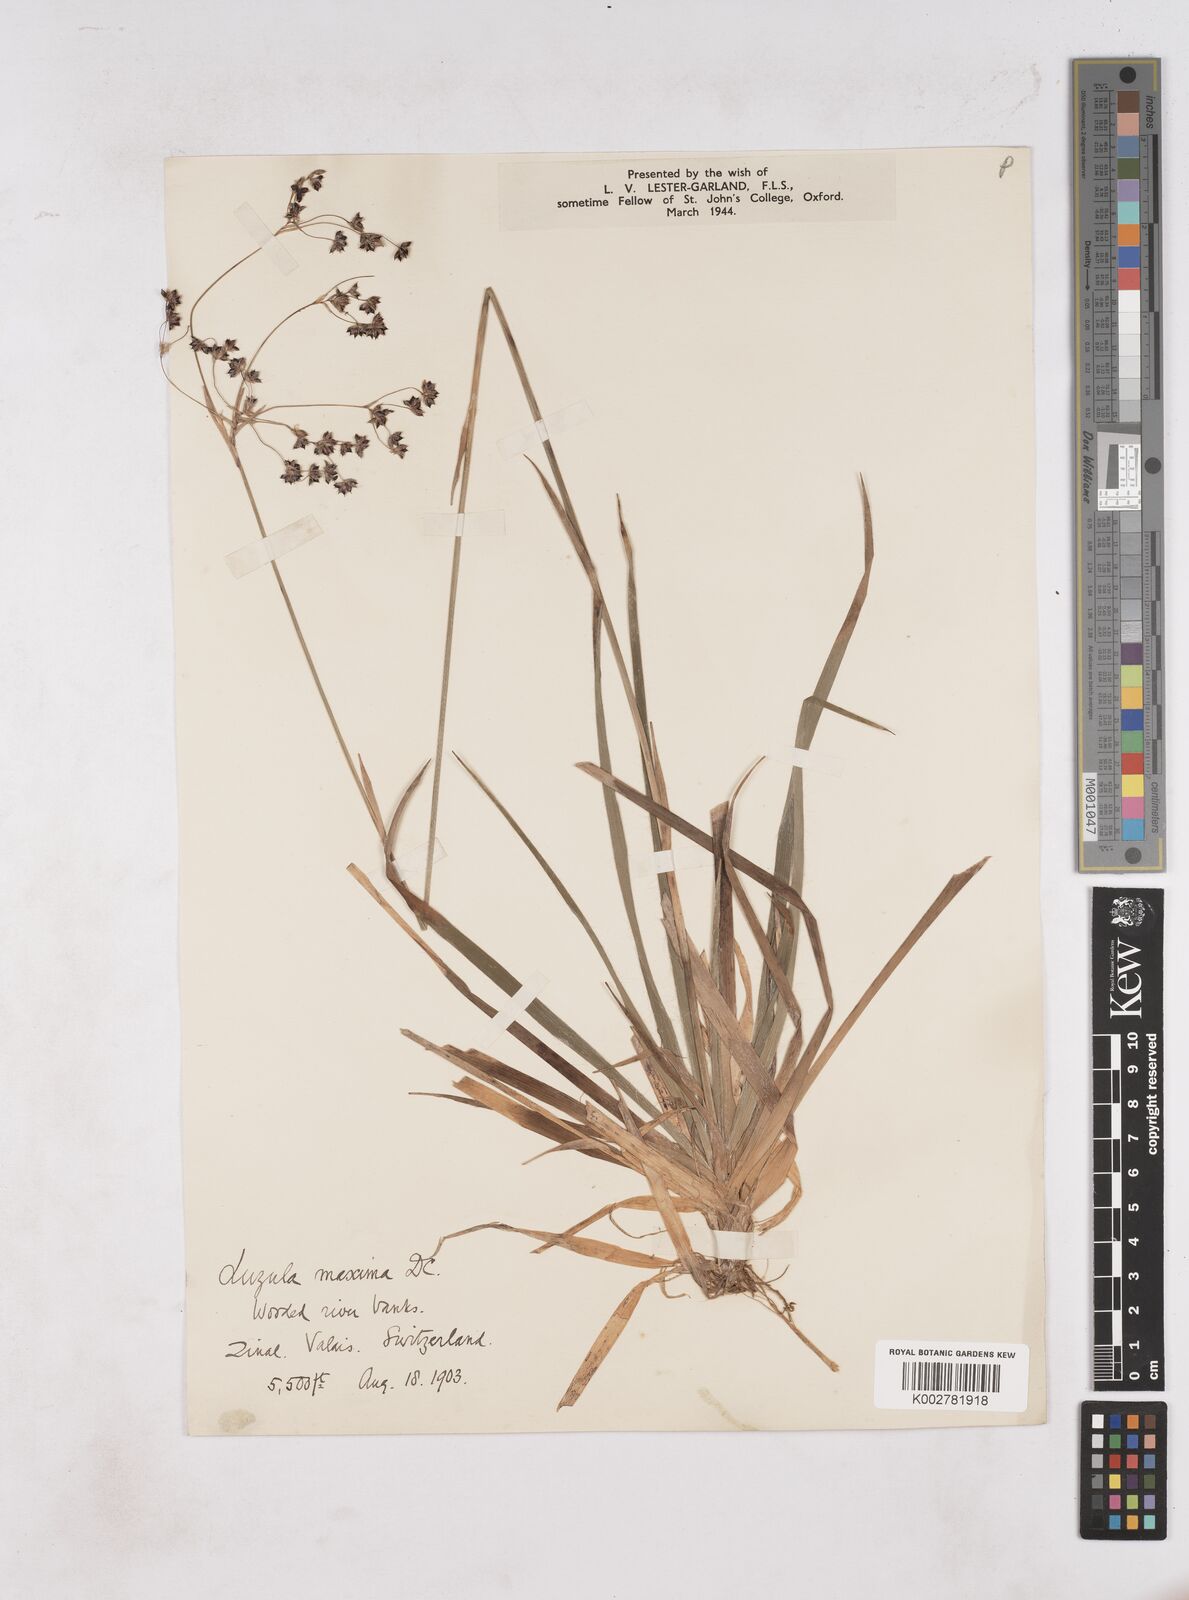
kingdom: Plantae
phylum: Tracheophyta
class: Liliopsida
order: Poales
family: Juncaceae
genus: Luzula
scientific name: Luzula sylvatica
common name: Great wood-rush
